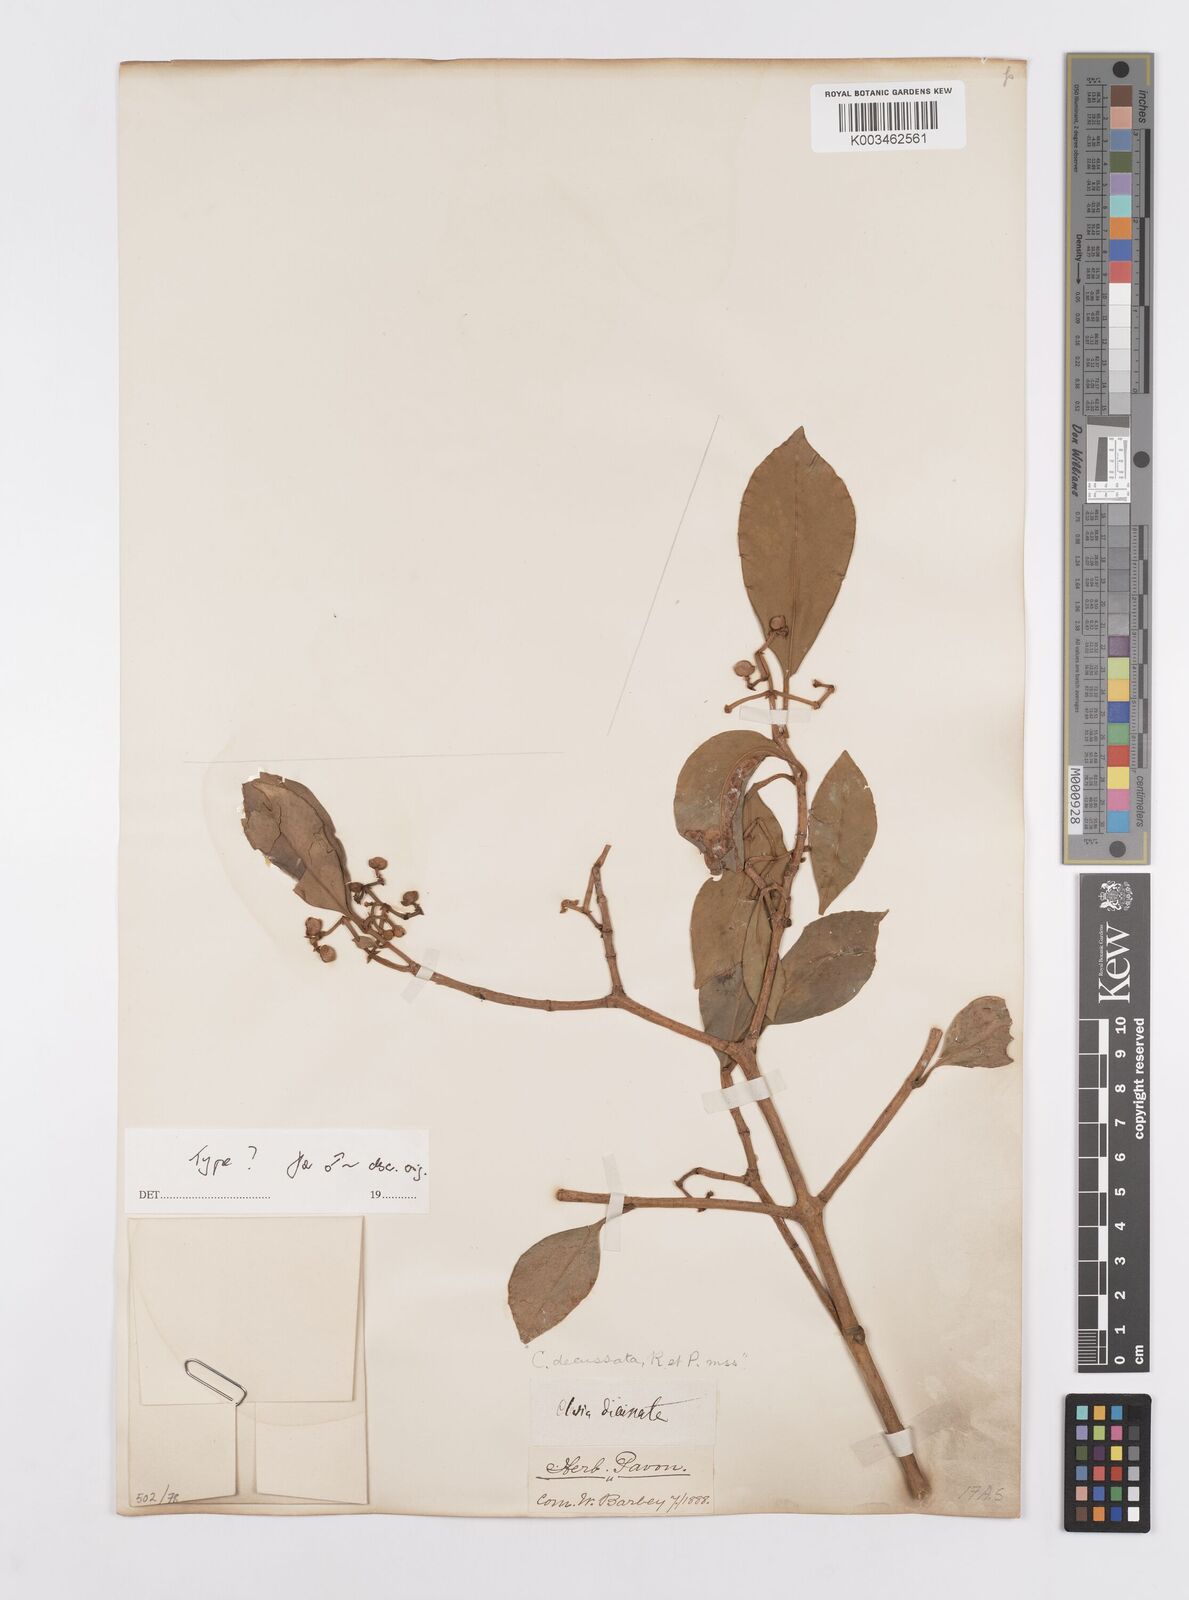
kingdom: Plantae
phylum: Tracheophyta
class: Magnoliopsida
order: Malpighiales
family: Clusiaceae
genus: Clusia
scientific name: Clusia decussata
